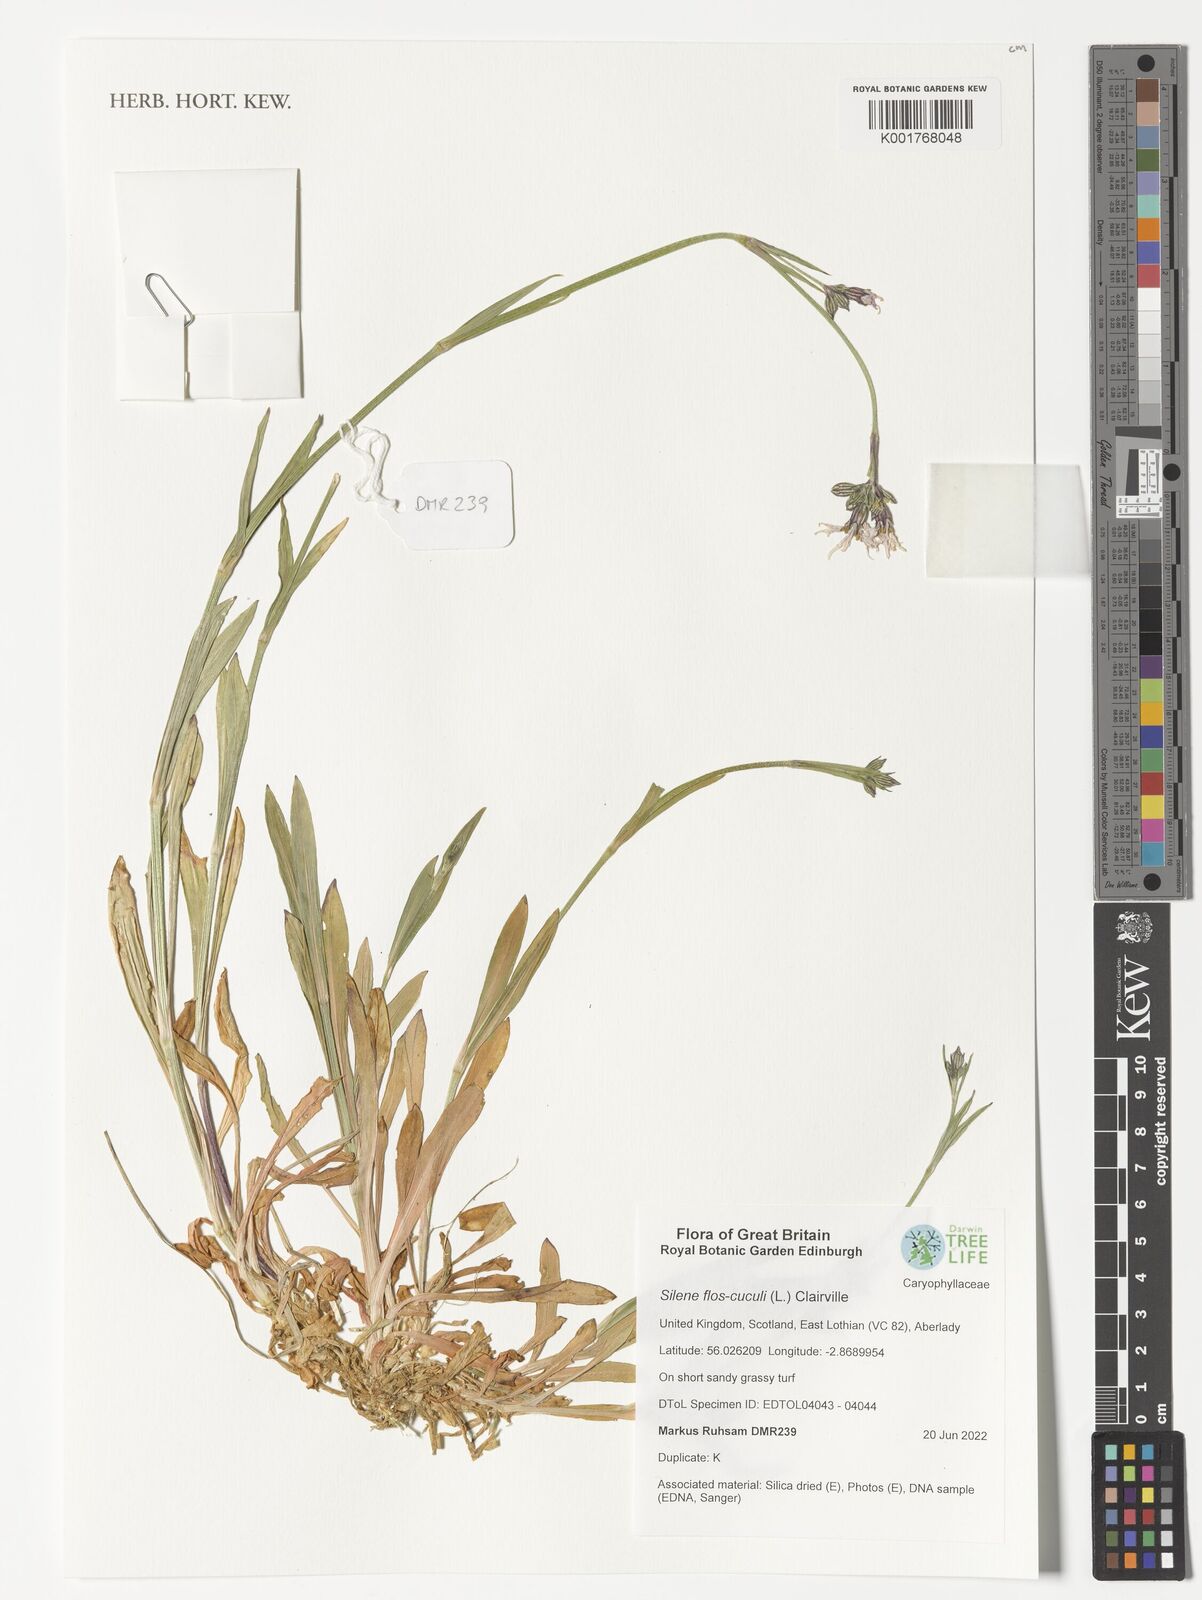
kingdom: Plantae
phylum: Tracheophyta
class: Magnoliopsida
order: Caryophyllales
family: Caryophyllaceae
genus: Silene
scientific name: Silene flos-cuculi
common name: Ragged-robin
